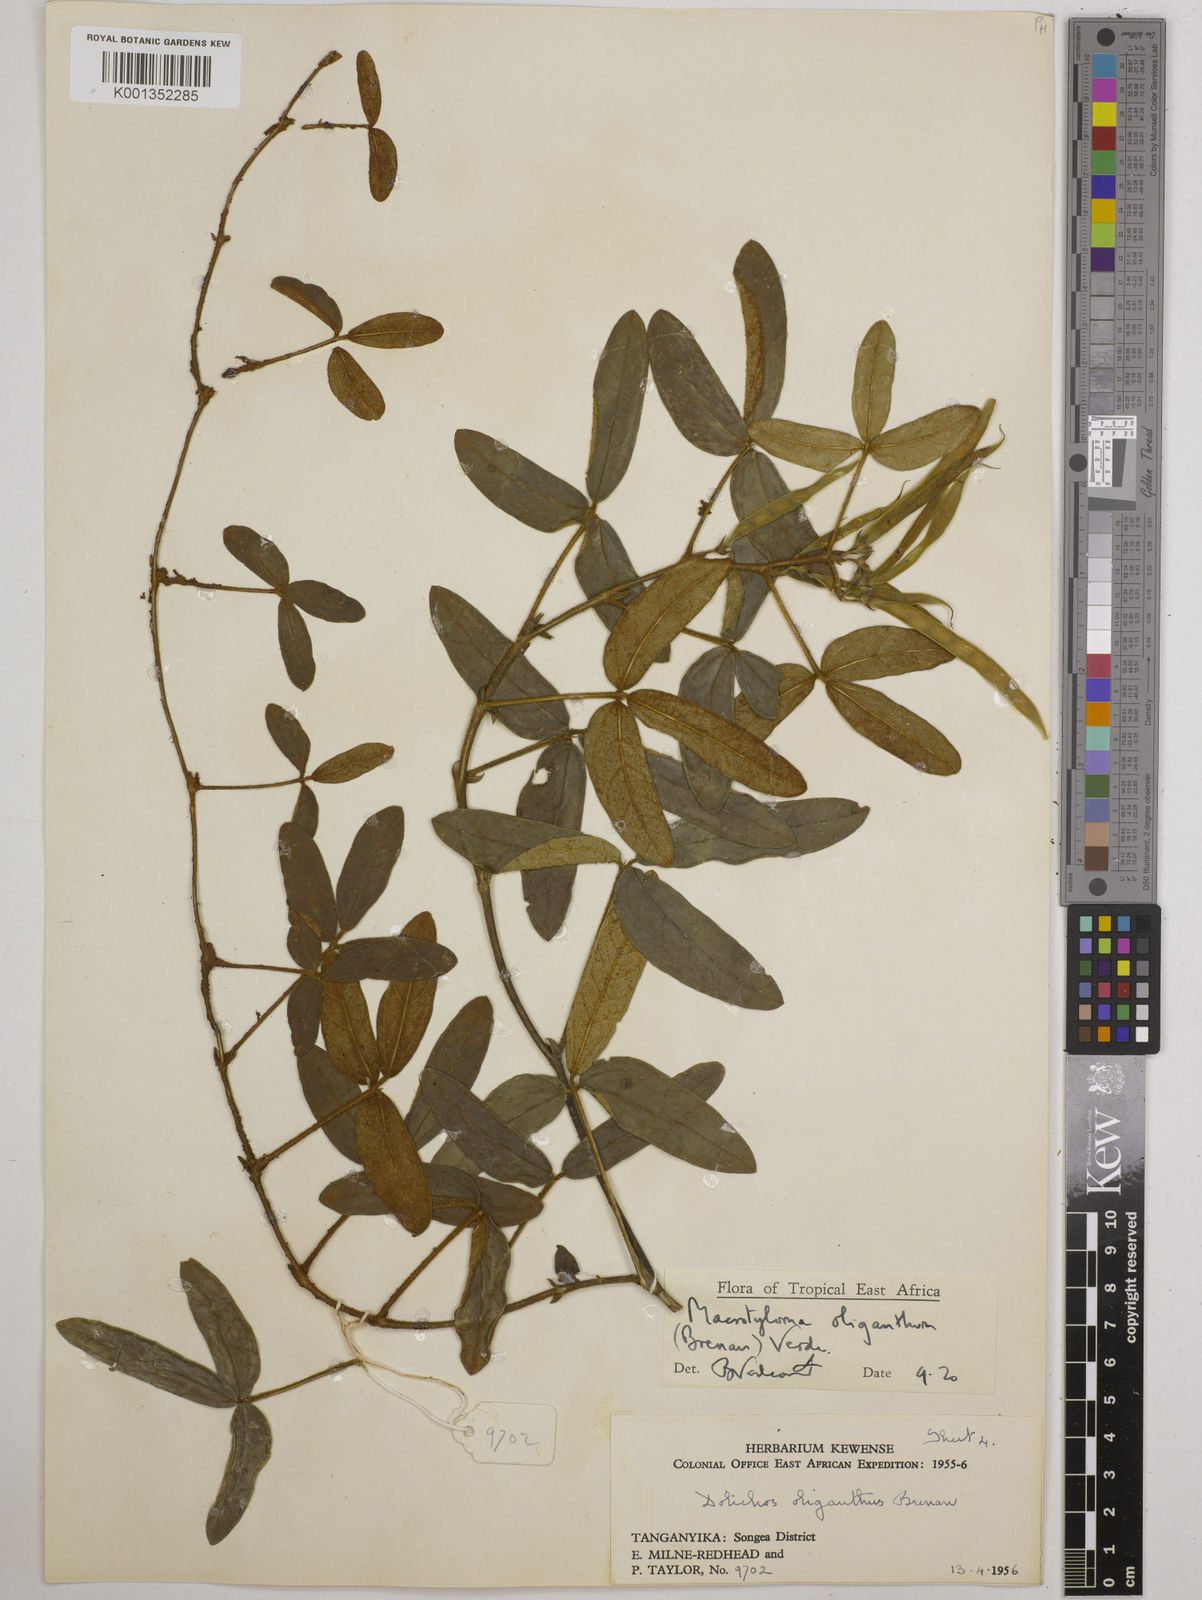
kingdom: Plantae
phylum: Tracheophyta
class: Magnoliopsida
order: Fabales
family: Fabaceae
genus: Macrotyloma
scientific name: Macrotyloma oliganthum
